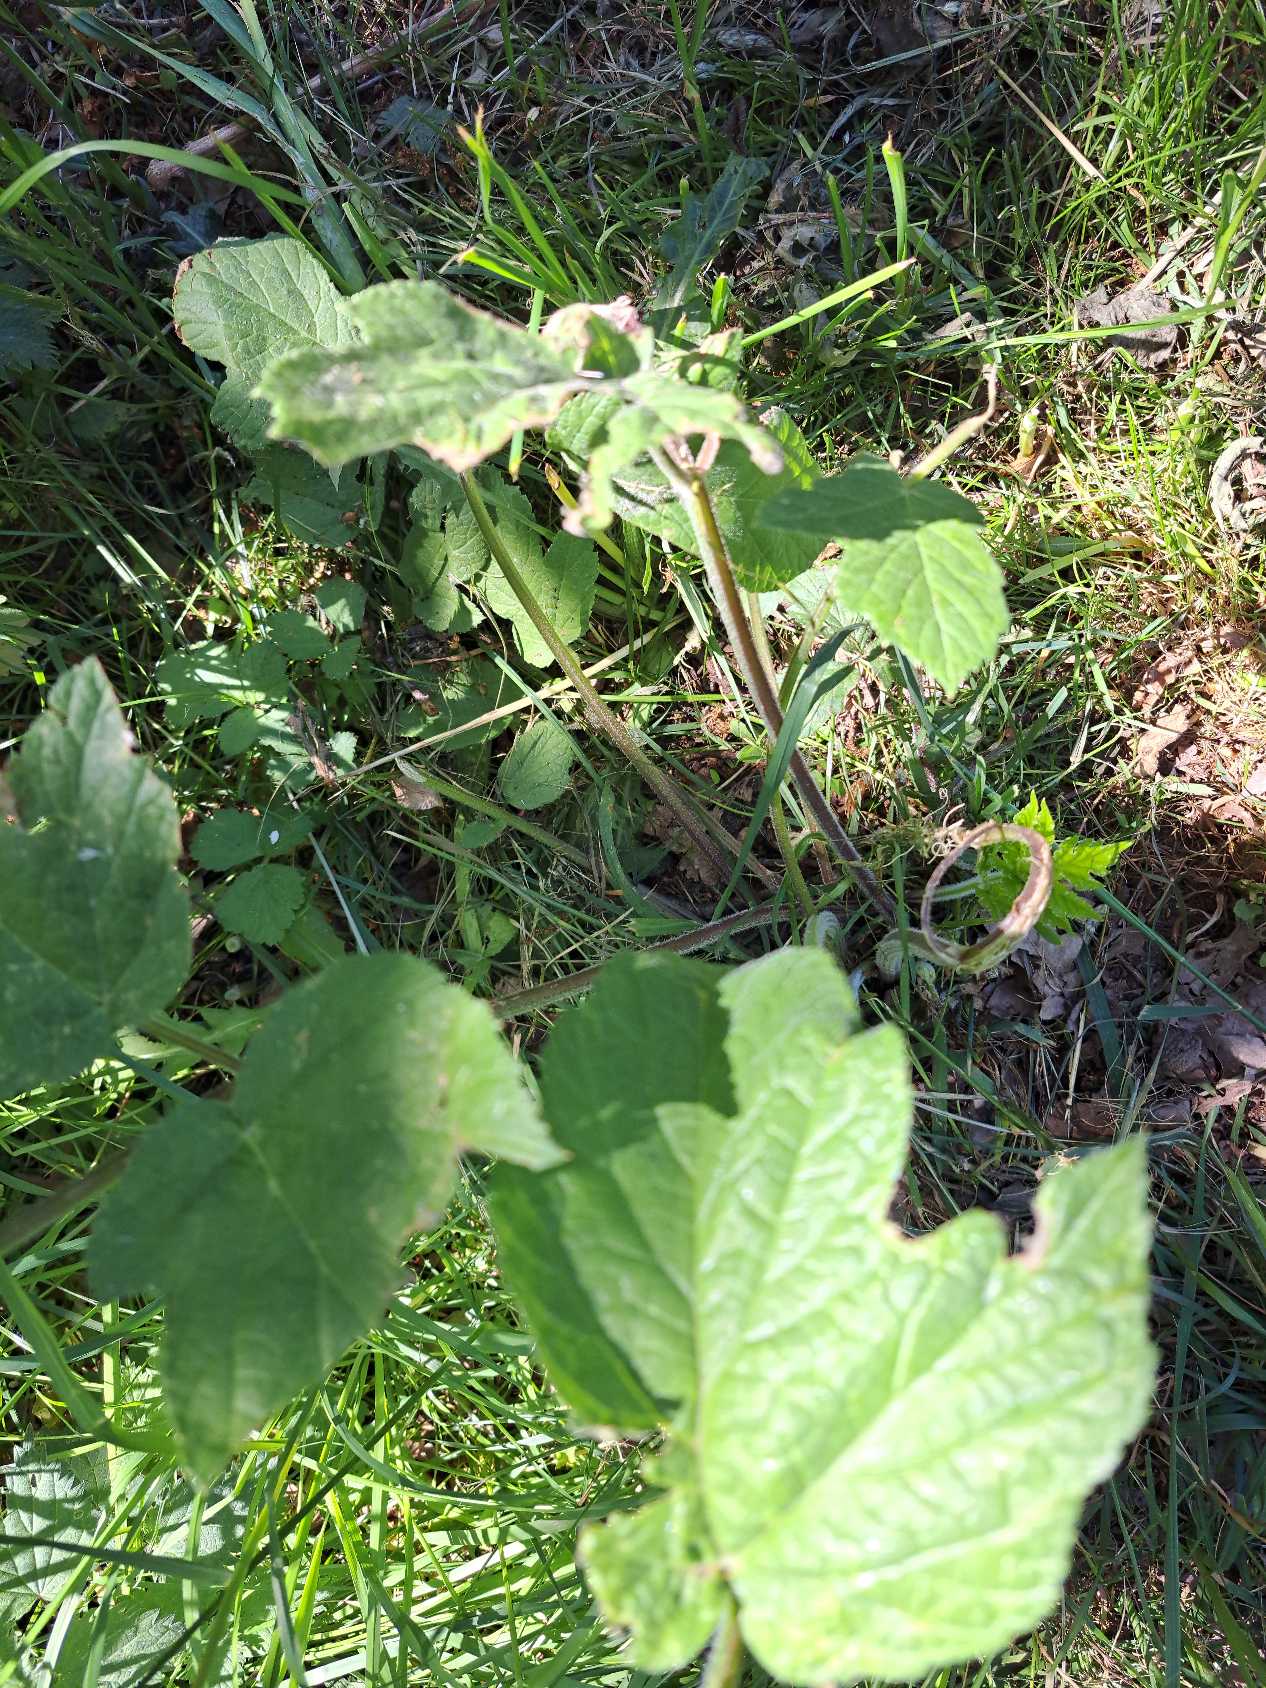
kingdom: Plantae
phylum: Tracheophyta
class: Magnoliopsida
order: Apiales
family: Apiaceae
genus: Heracleum
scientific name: Heracleum sphondylium
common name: Almindelig bjørneklo
